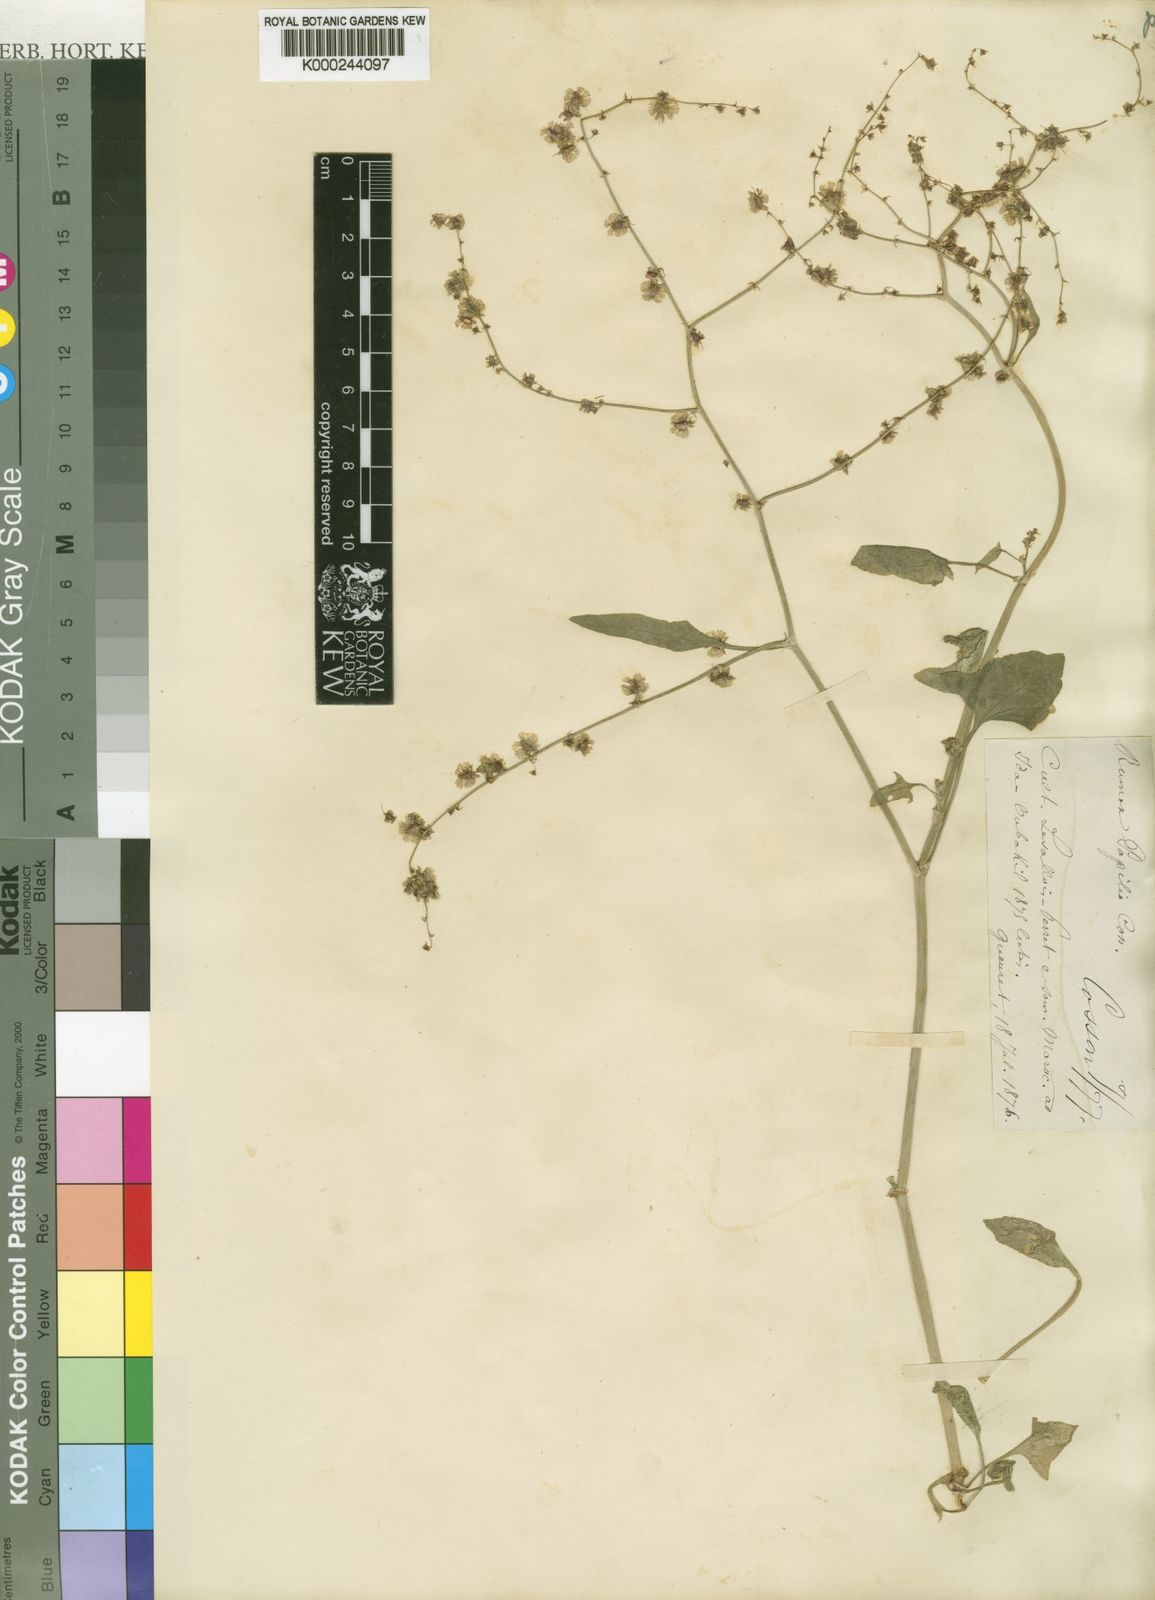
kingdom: Plantae
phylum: Tracheophyta
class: Magnoliopsida
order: Caryophyllales
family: Polygonaceae
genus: Rumex
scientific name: Rumex papilio
